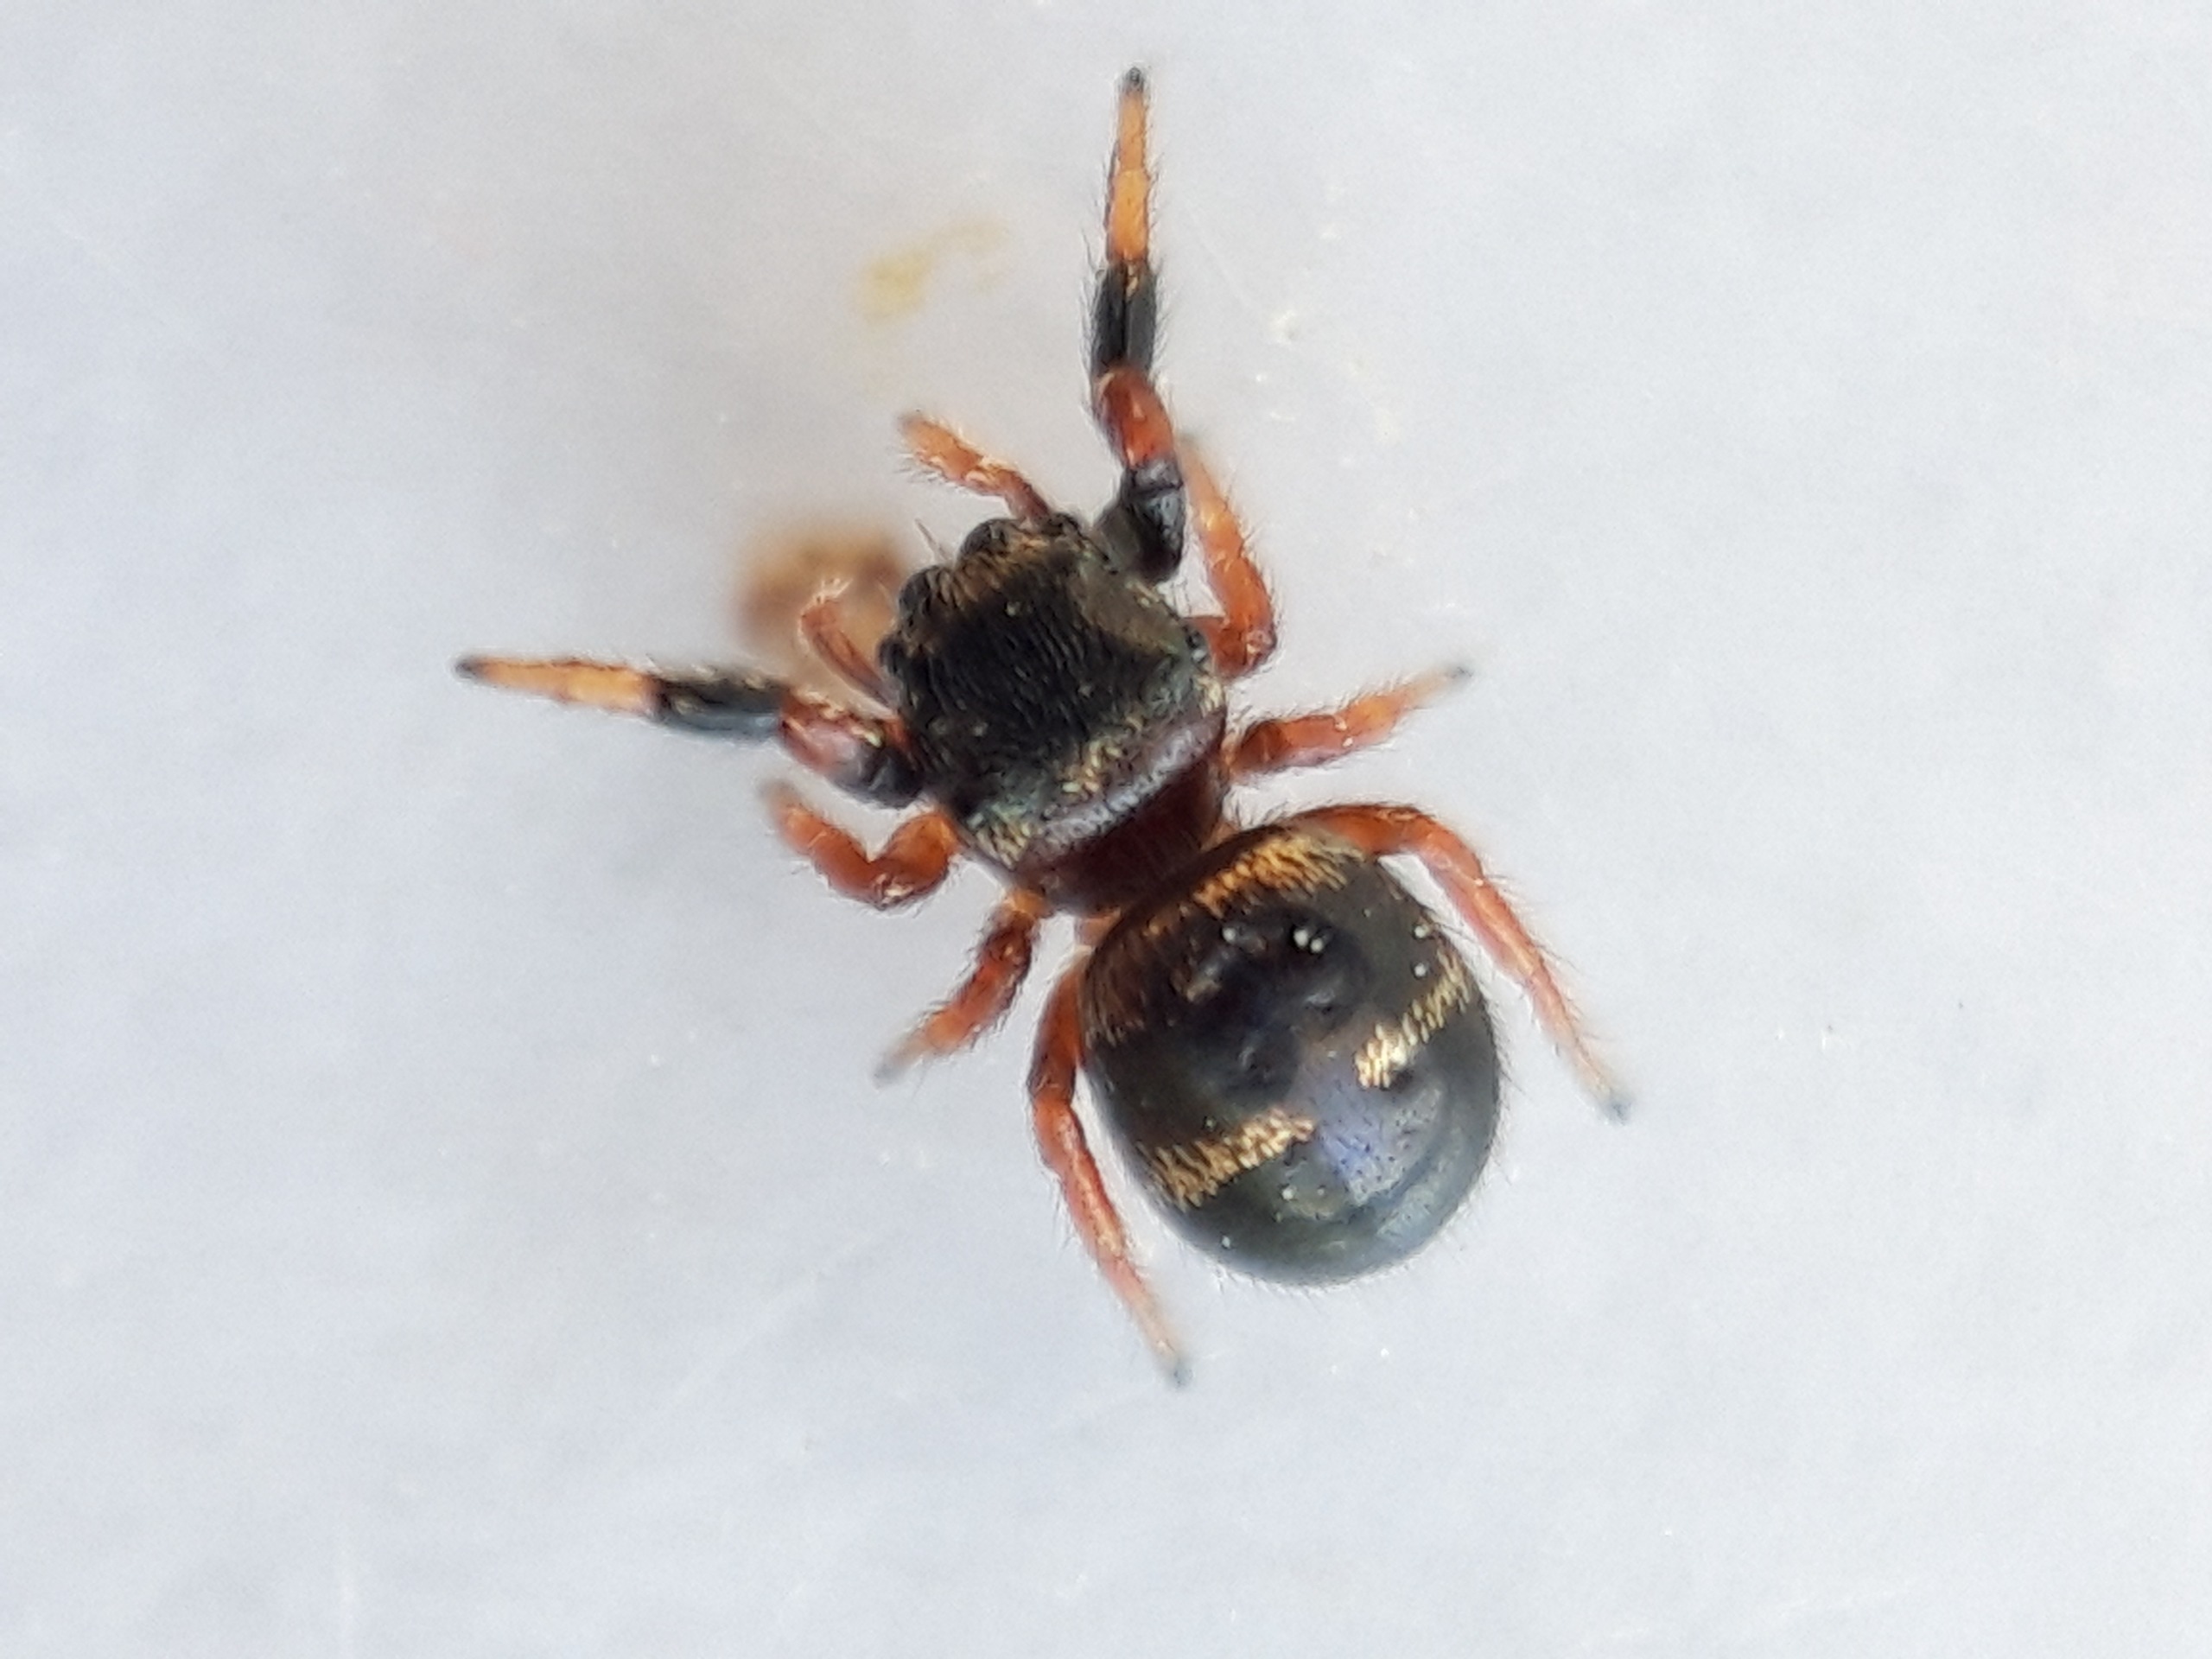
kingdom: Animalia
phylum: Arthropoda
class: Arachnida
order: Araneae
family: Salticidae
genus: Sibianor
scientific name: Sibianor larae
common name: Guldspringer
